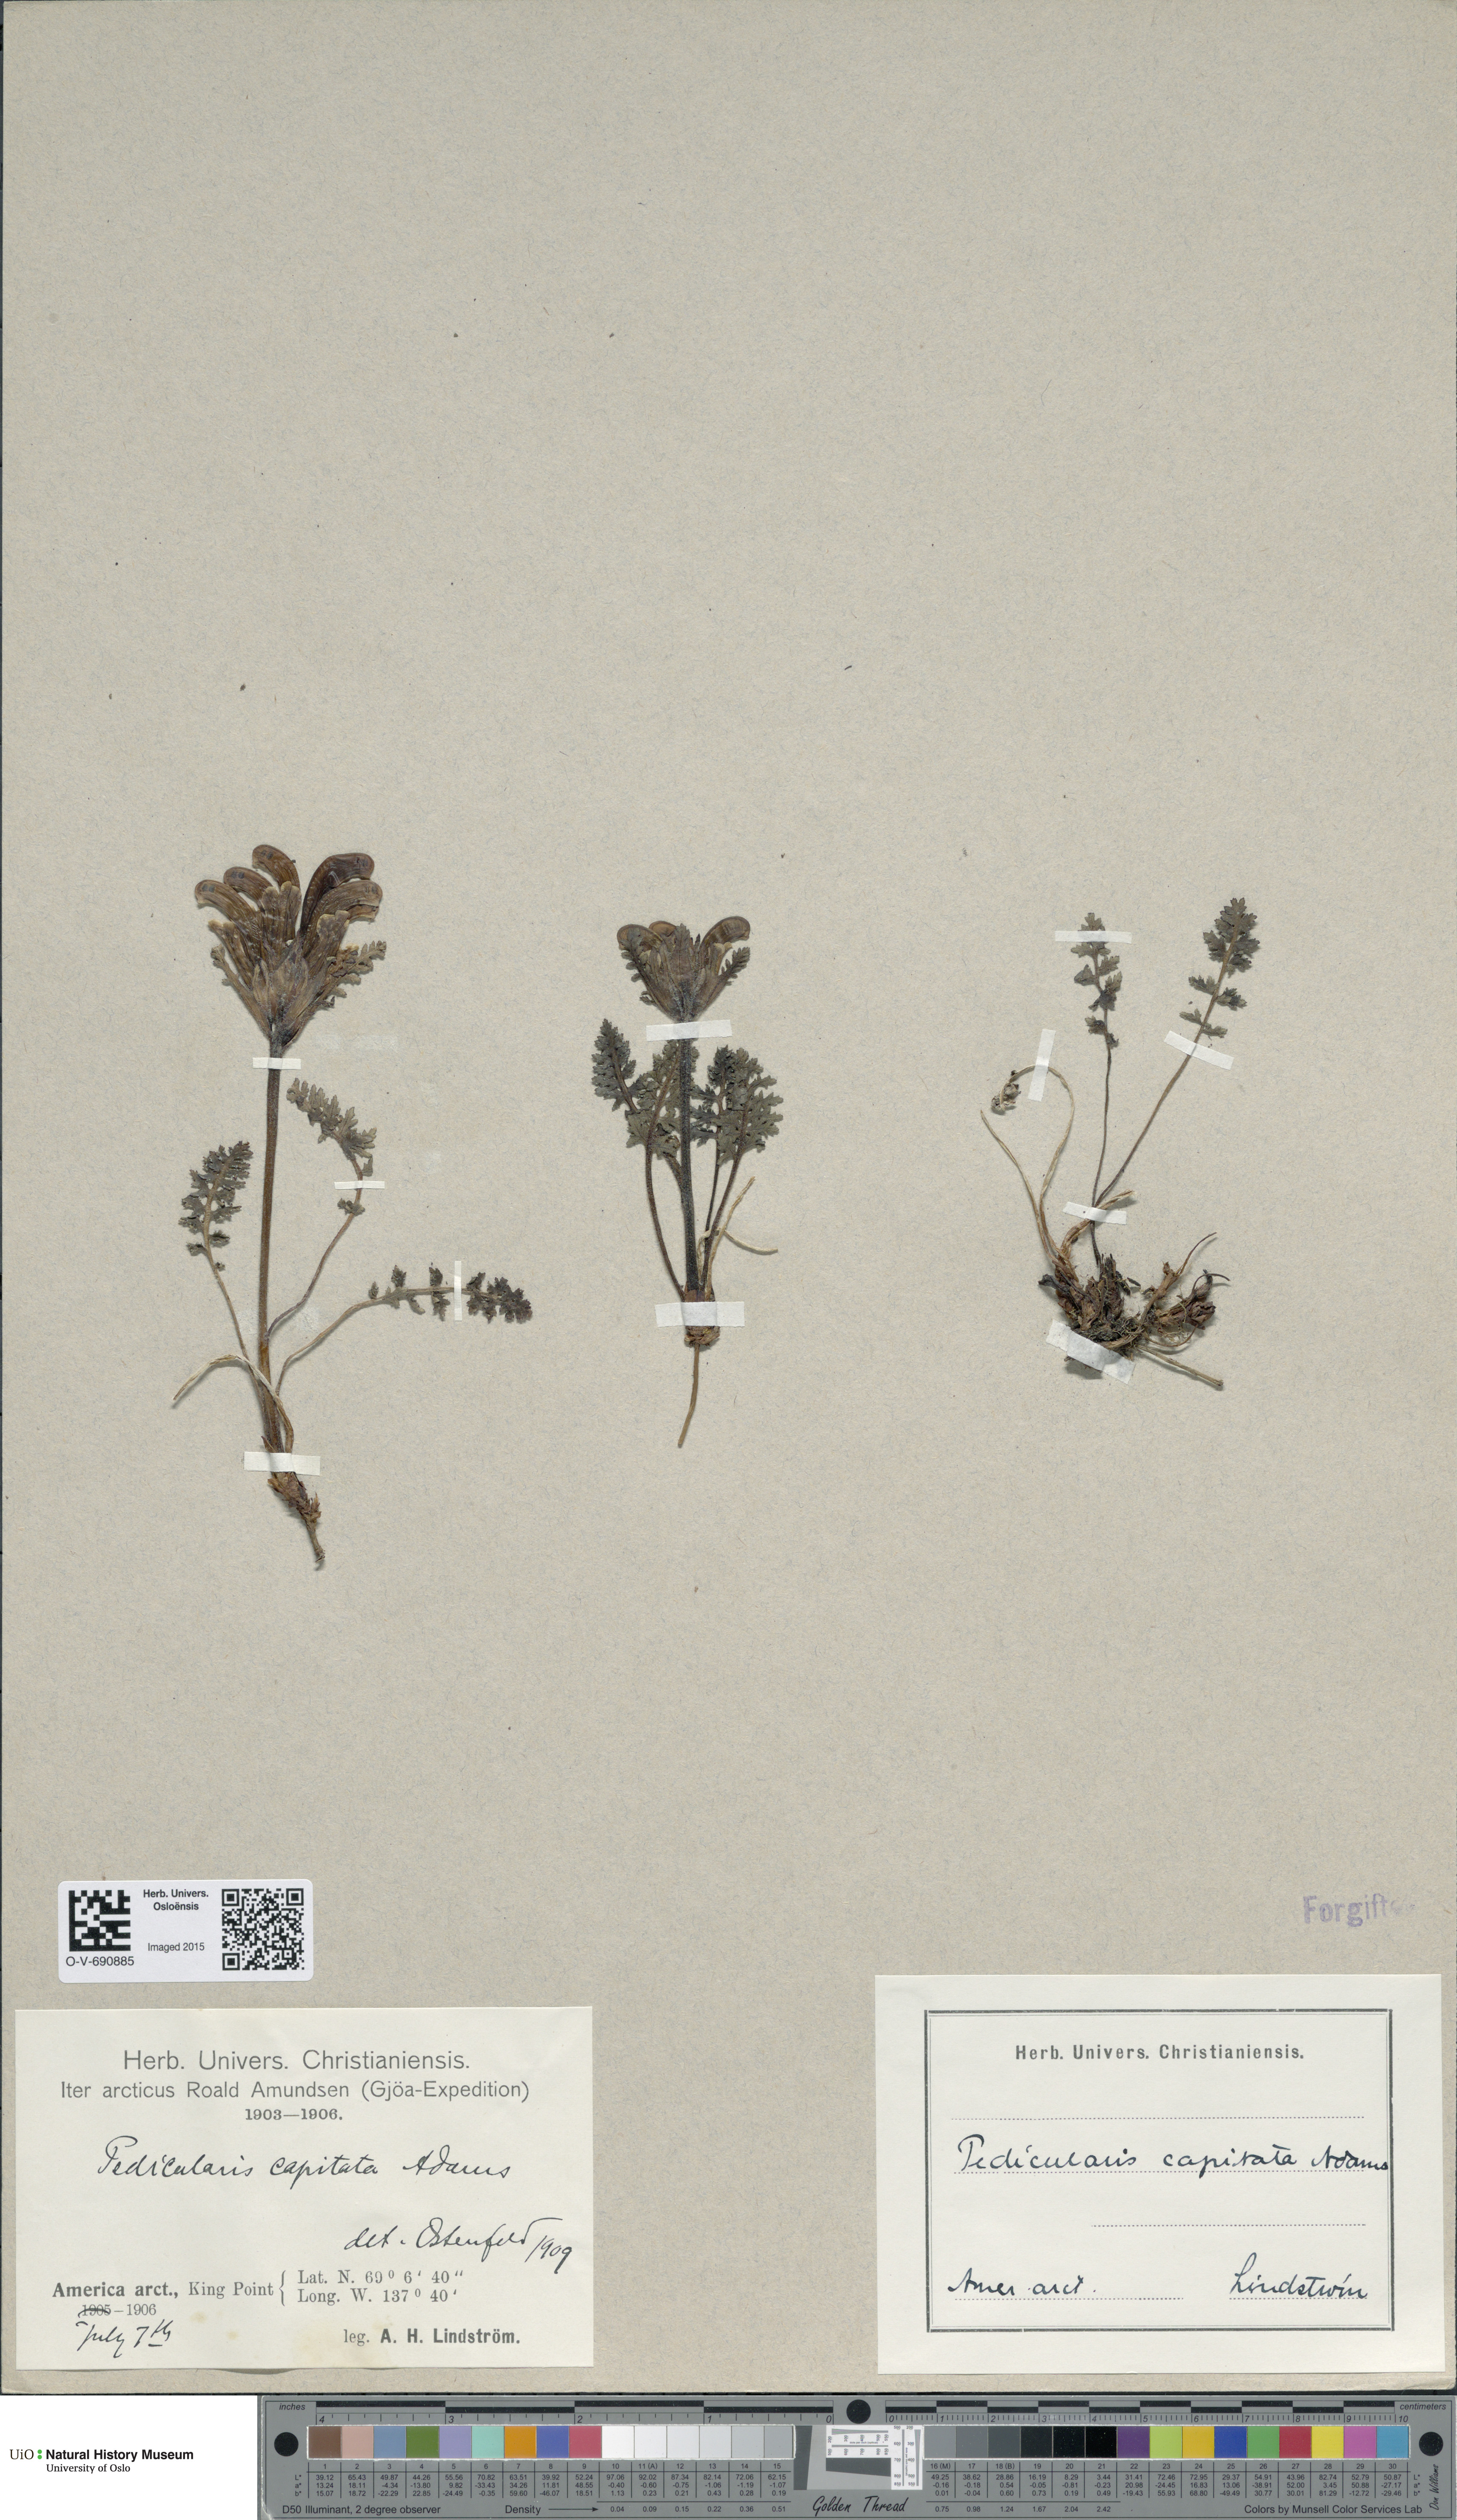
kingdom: Plantae
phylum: Tracheophyta
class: Magnoliopsida
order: Lamiales
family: Orobanchaceae
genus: Pedicularis
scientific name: Pedicularis capitata
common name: Capitate lousewort
